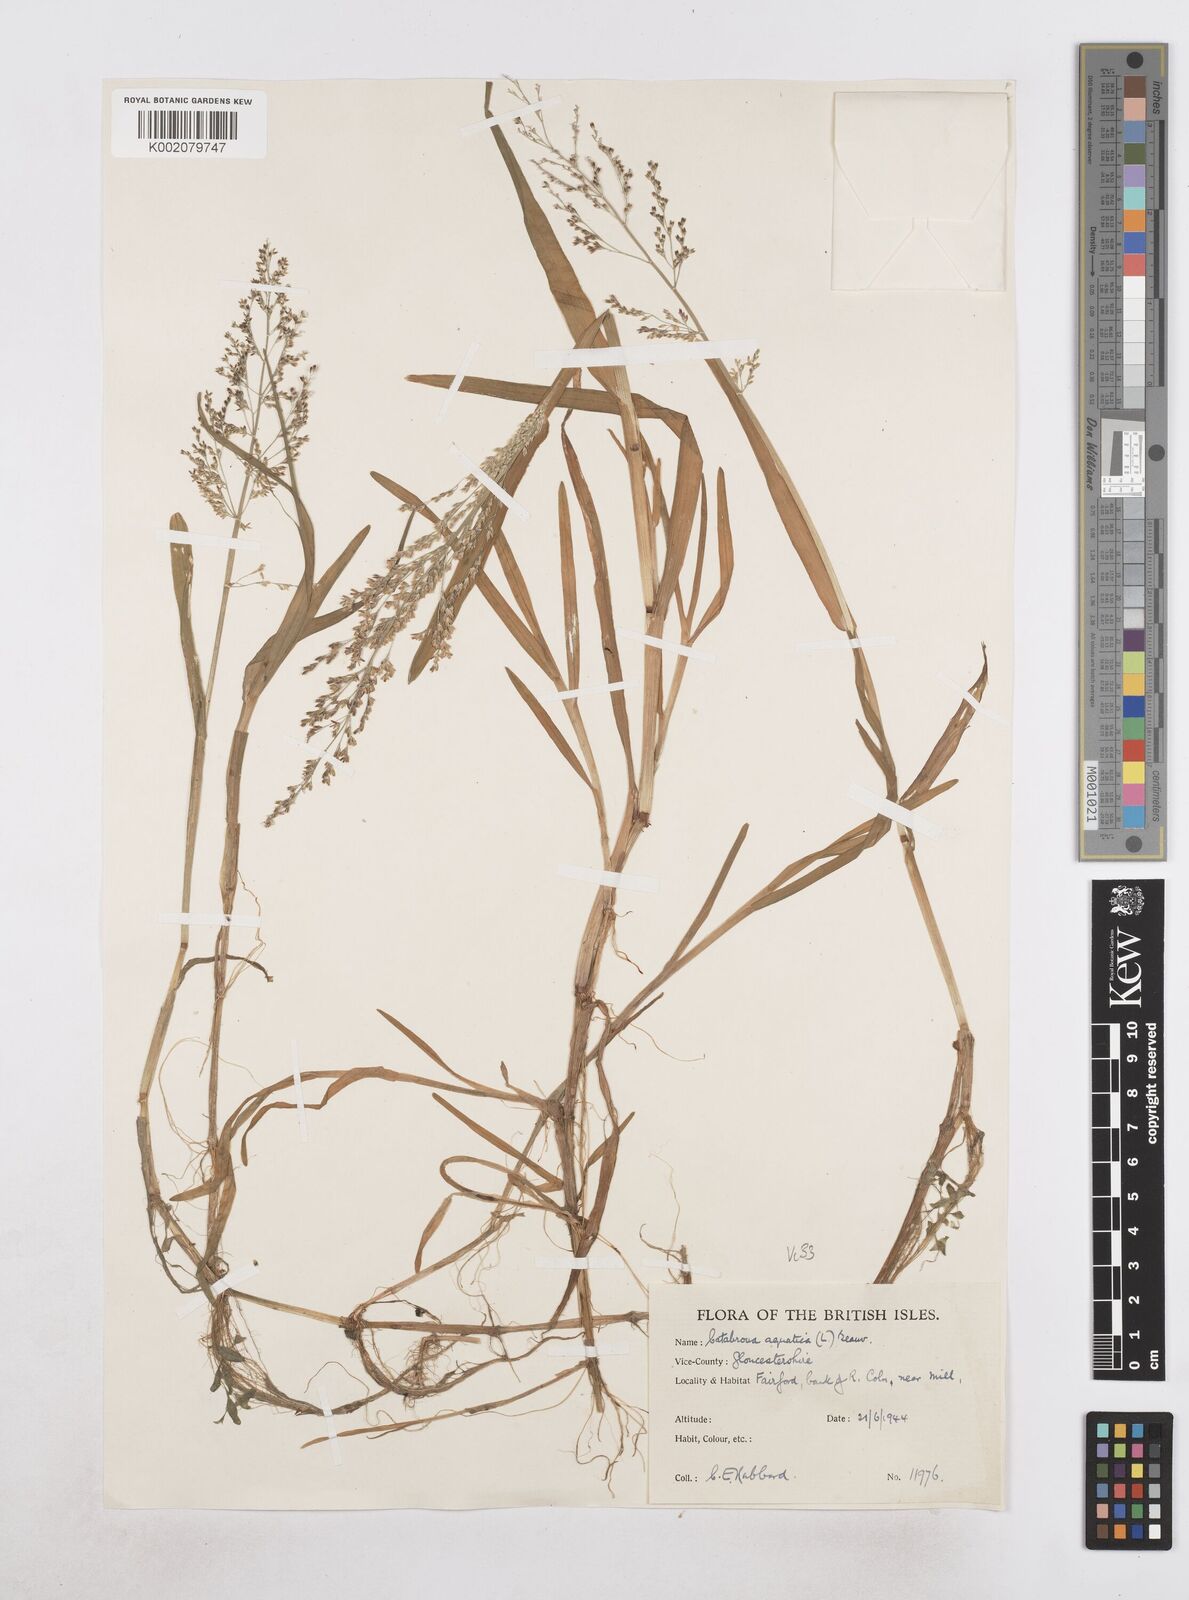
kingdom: Plantae
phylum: Tracheophyta
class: Liliopsida
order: Poales
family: Poaceae
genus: Catabrosa
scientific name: Catabrosa aquatica
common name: Whorl-grass
